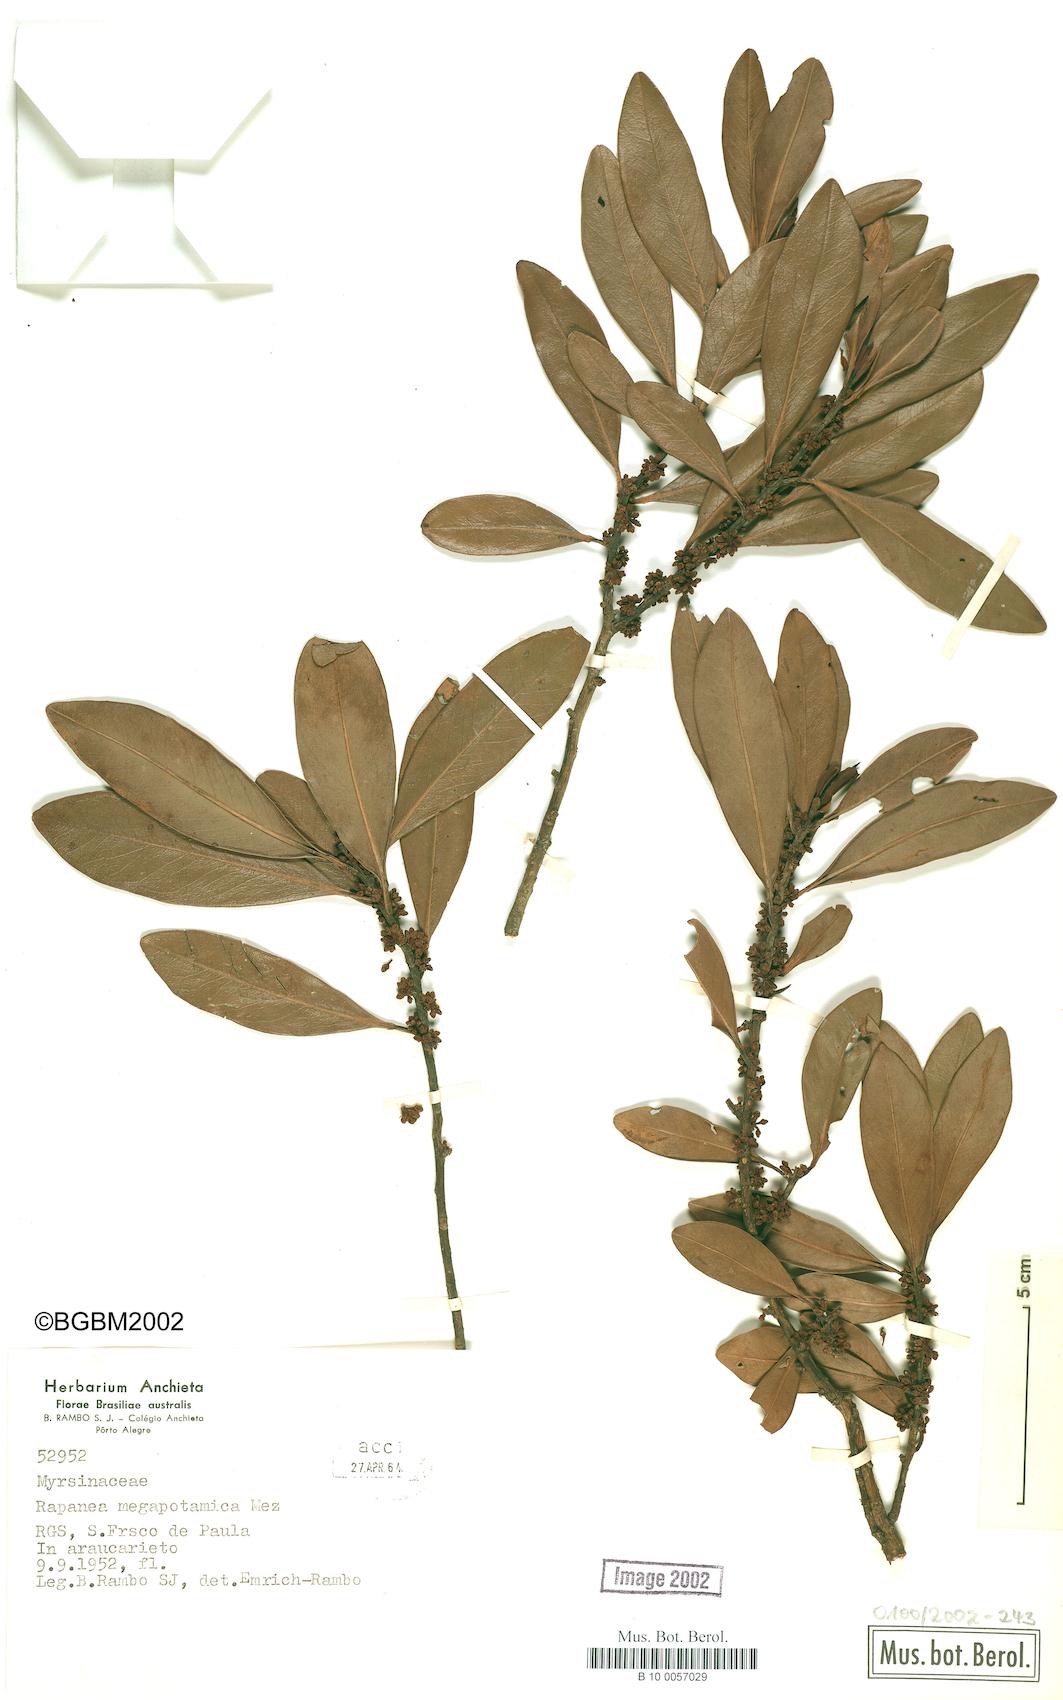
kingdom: Plantae
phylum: Tracheophyta
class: Magnoliopsida
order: Ericales
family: Primulaceae
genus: Myrsine
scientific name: Myrsine lorentziana
